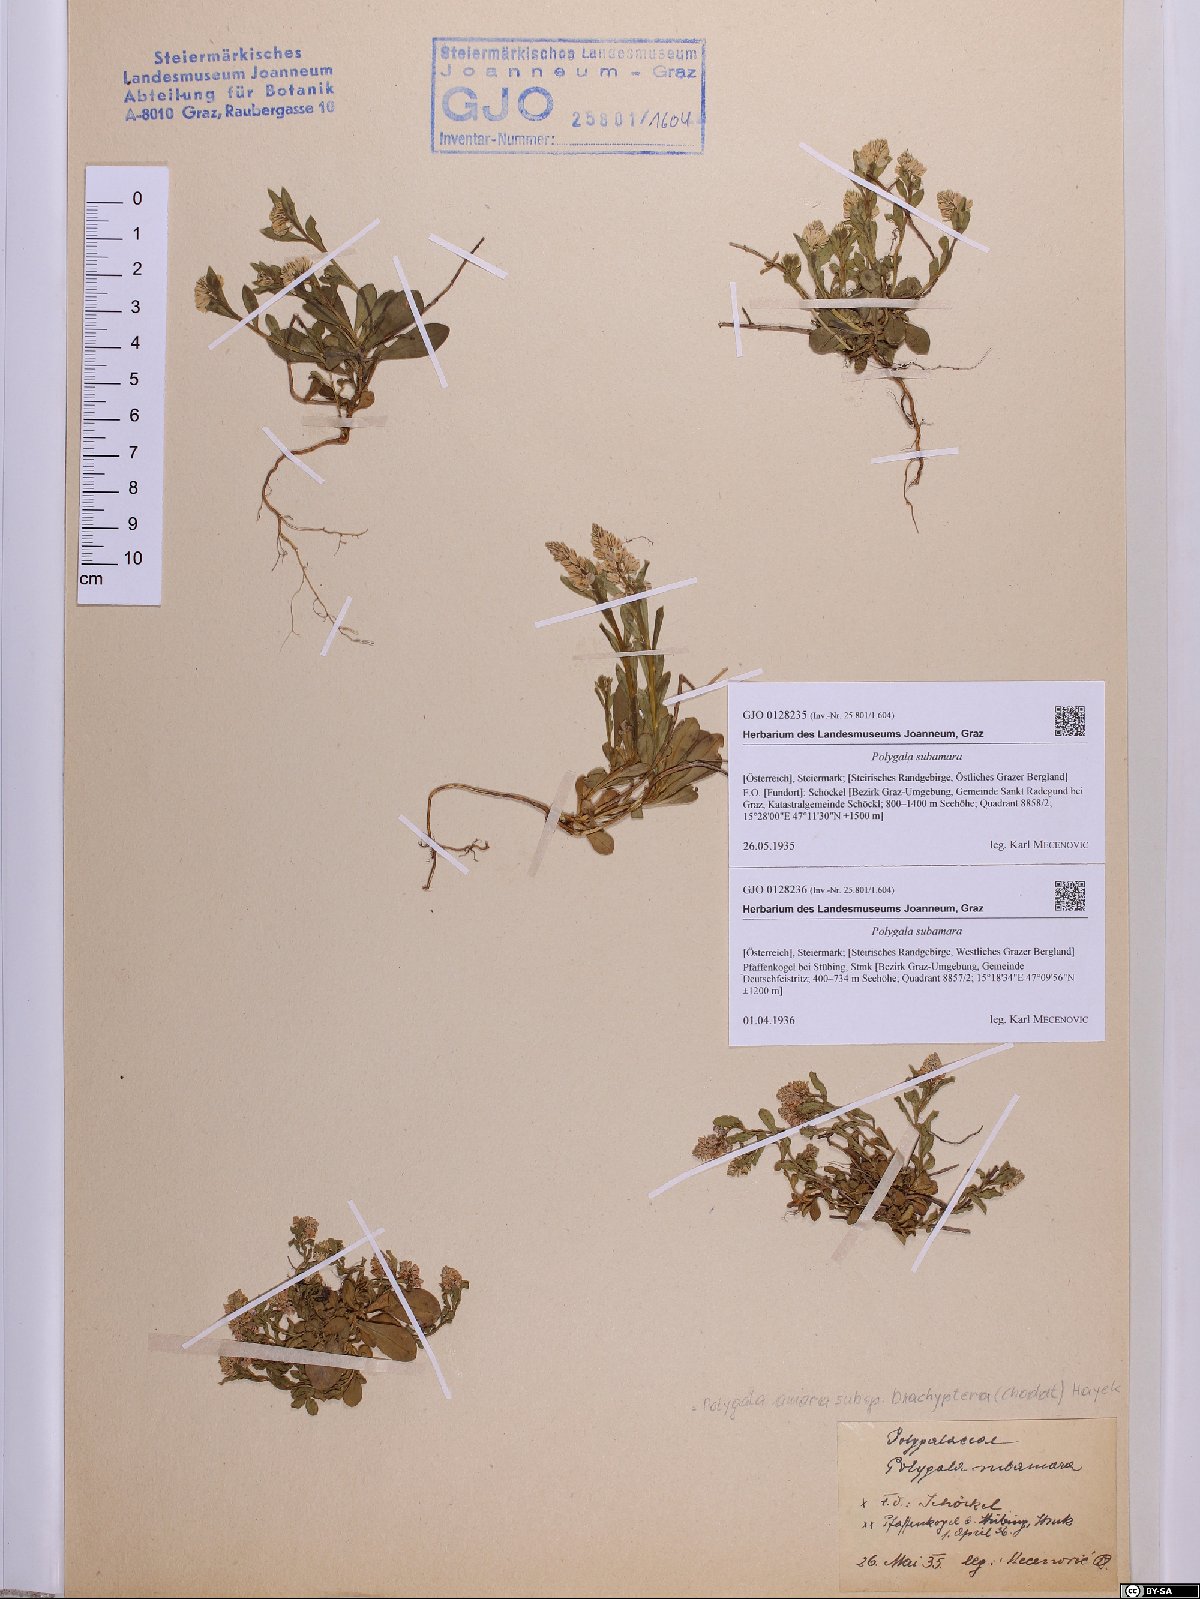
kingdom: Plantae
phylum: Tracheophyta
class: Magnoliopsida
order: Fabales
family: Polygalaceae
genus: Polygala
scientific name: Polygala amara
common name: Milkwort
